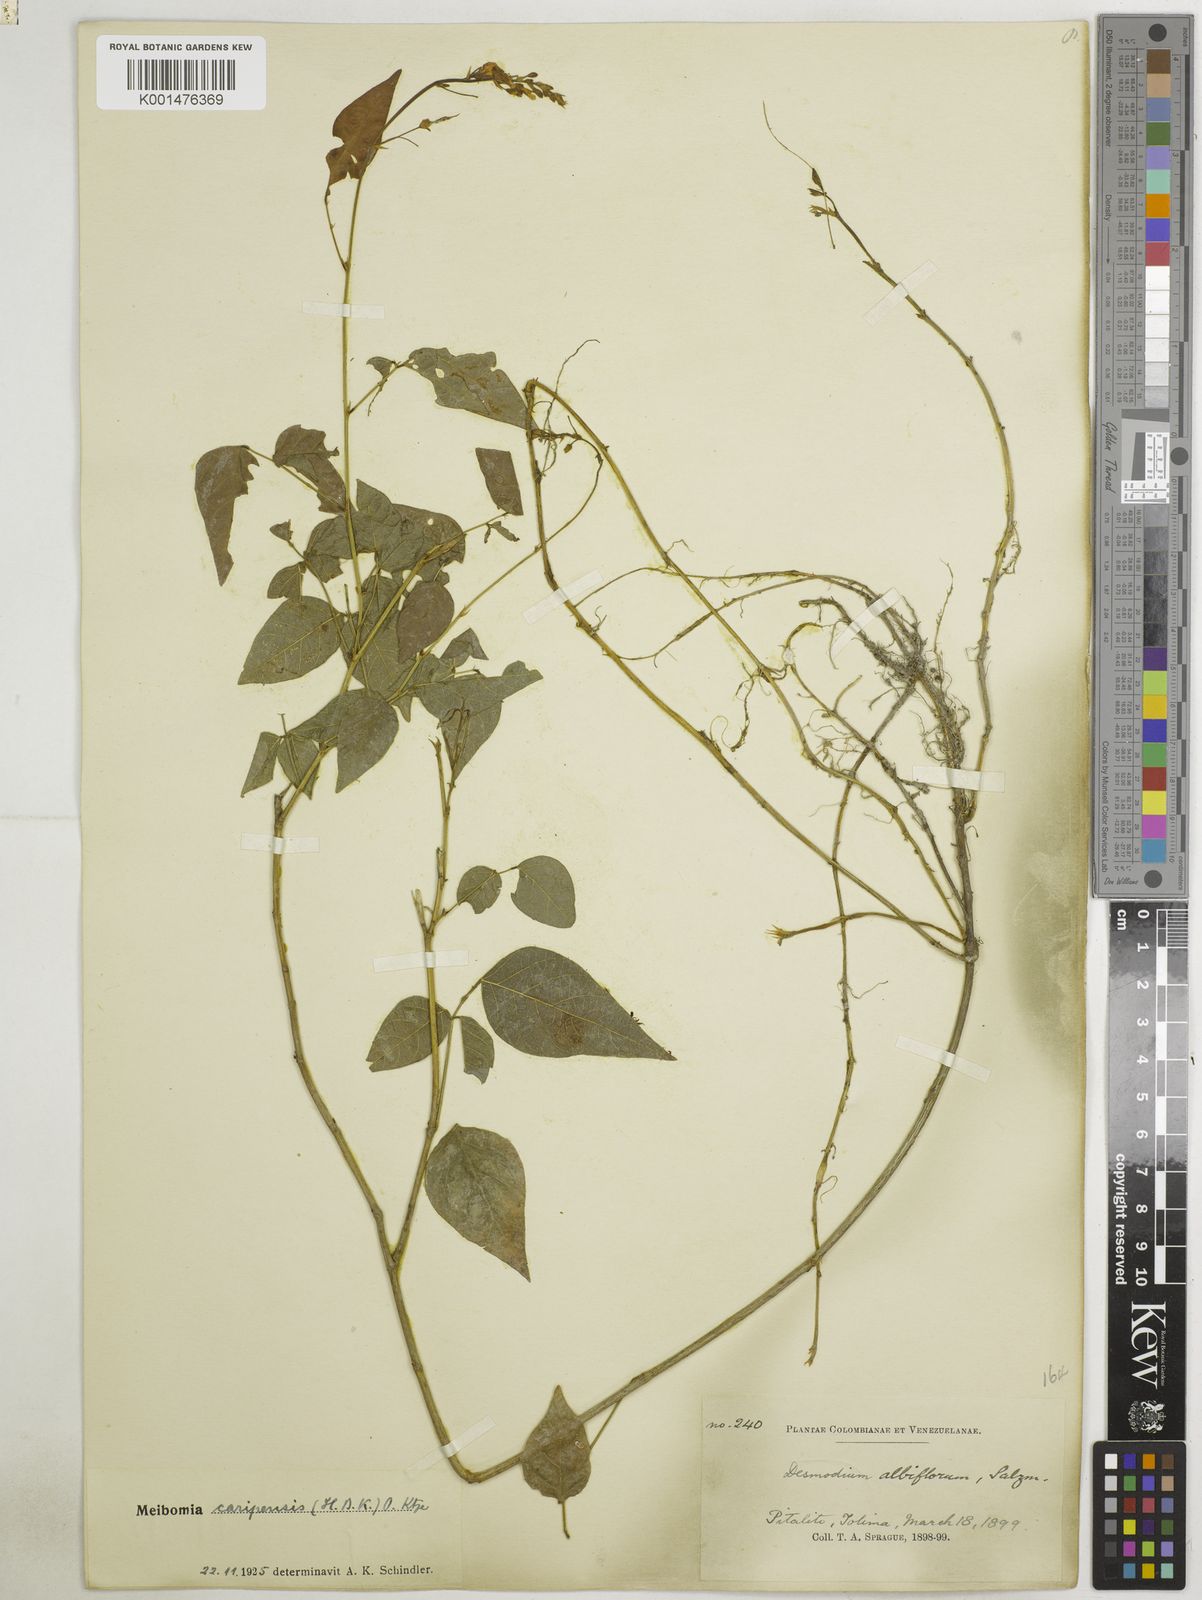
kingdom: Plantae
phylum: Tracheophyta
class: Magnoliopsida
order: Fabales
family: Fabaceae
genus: Desmodium
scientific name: Desmodium caripense
